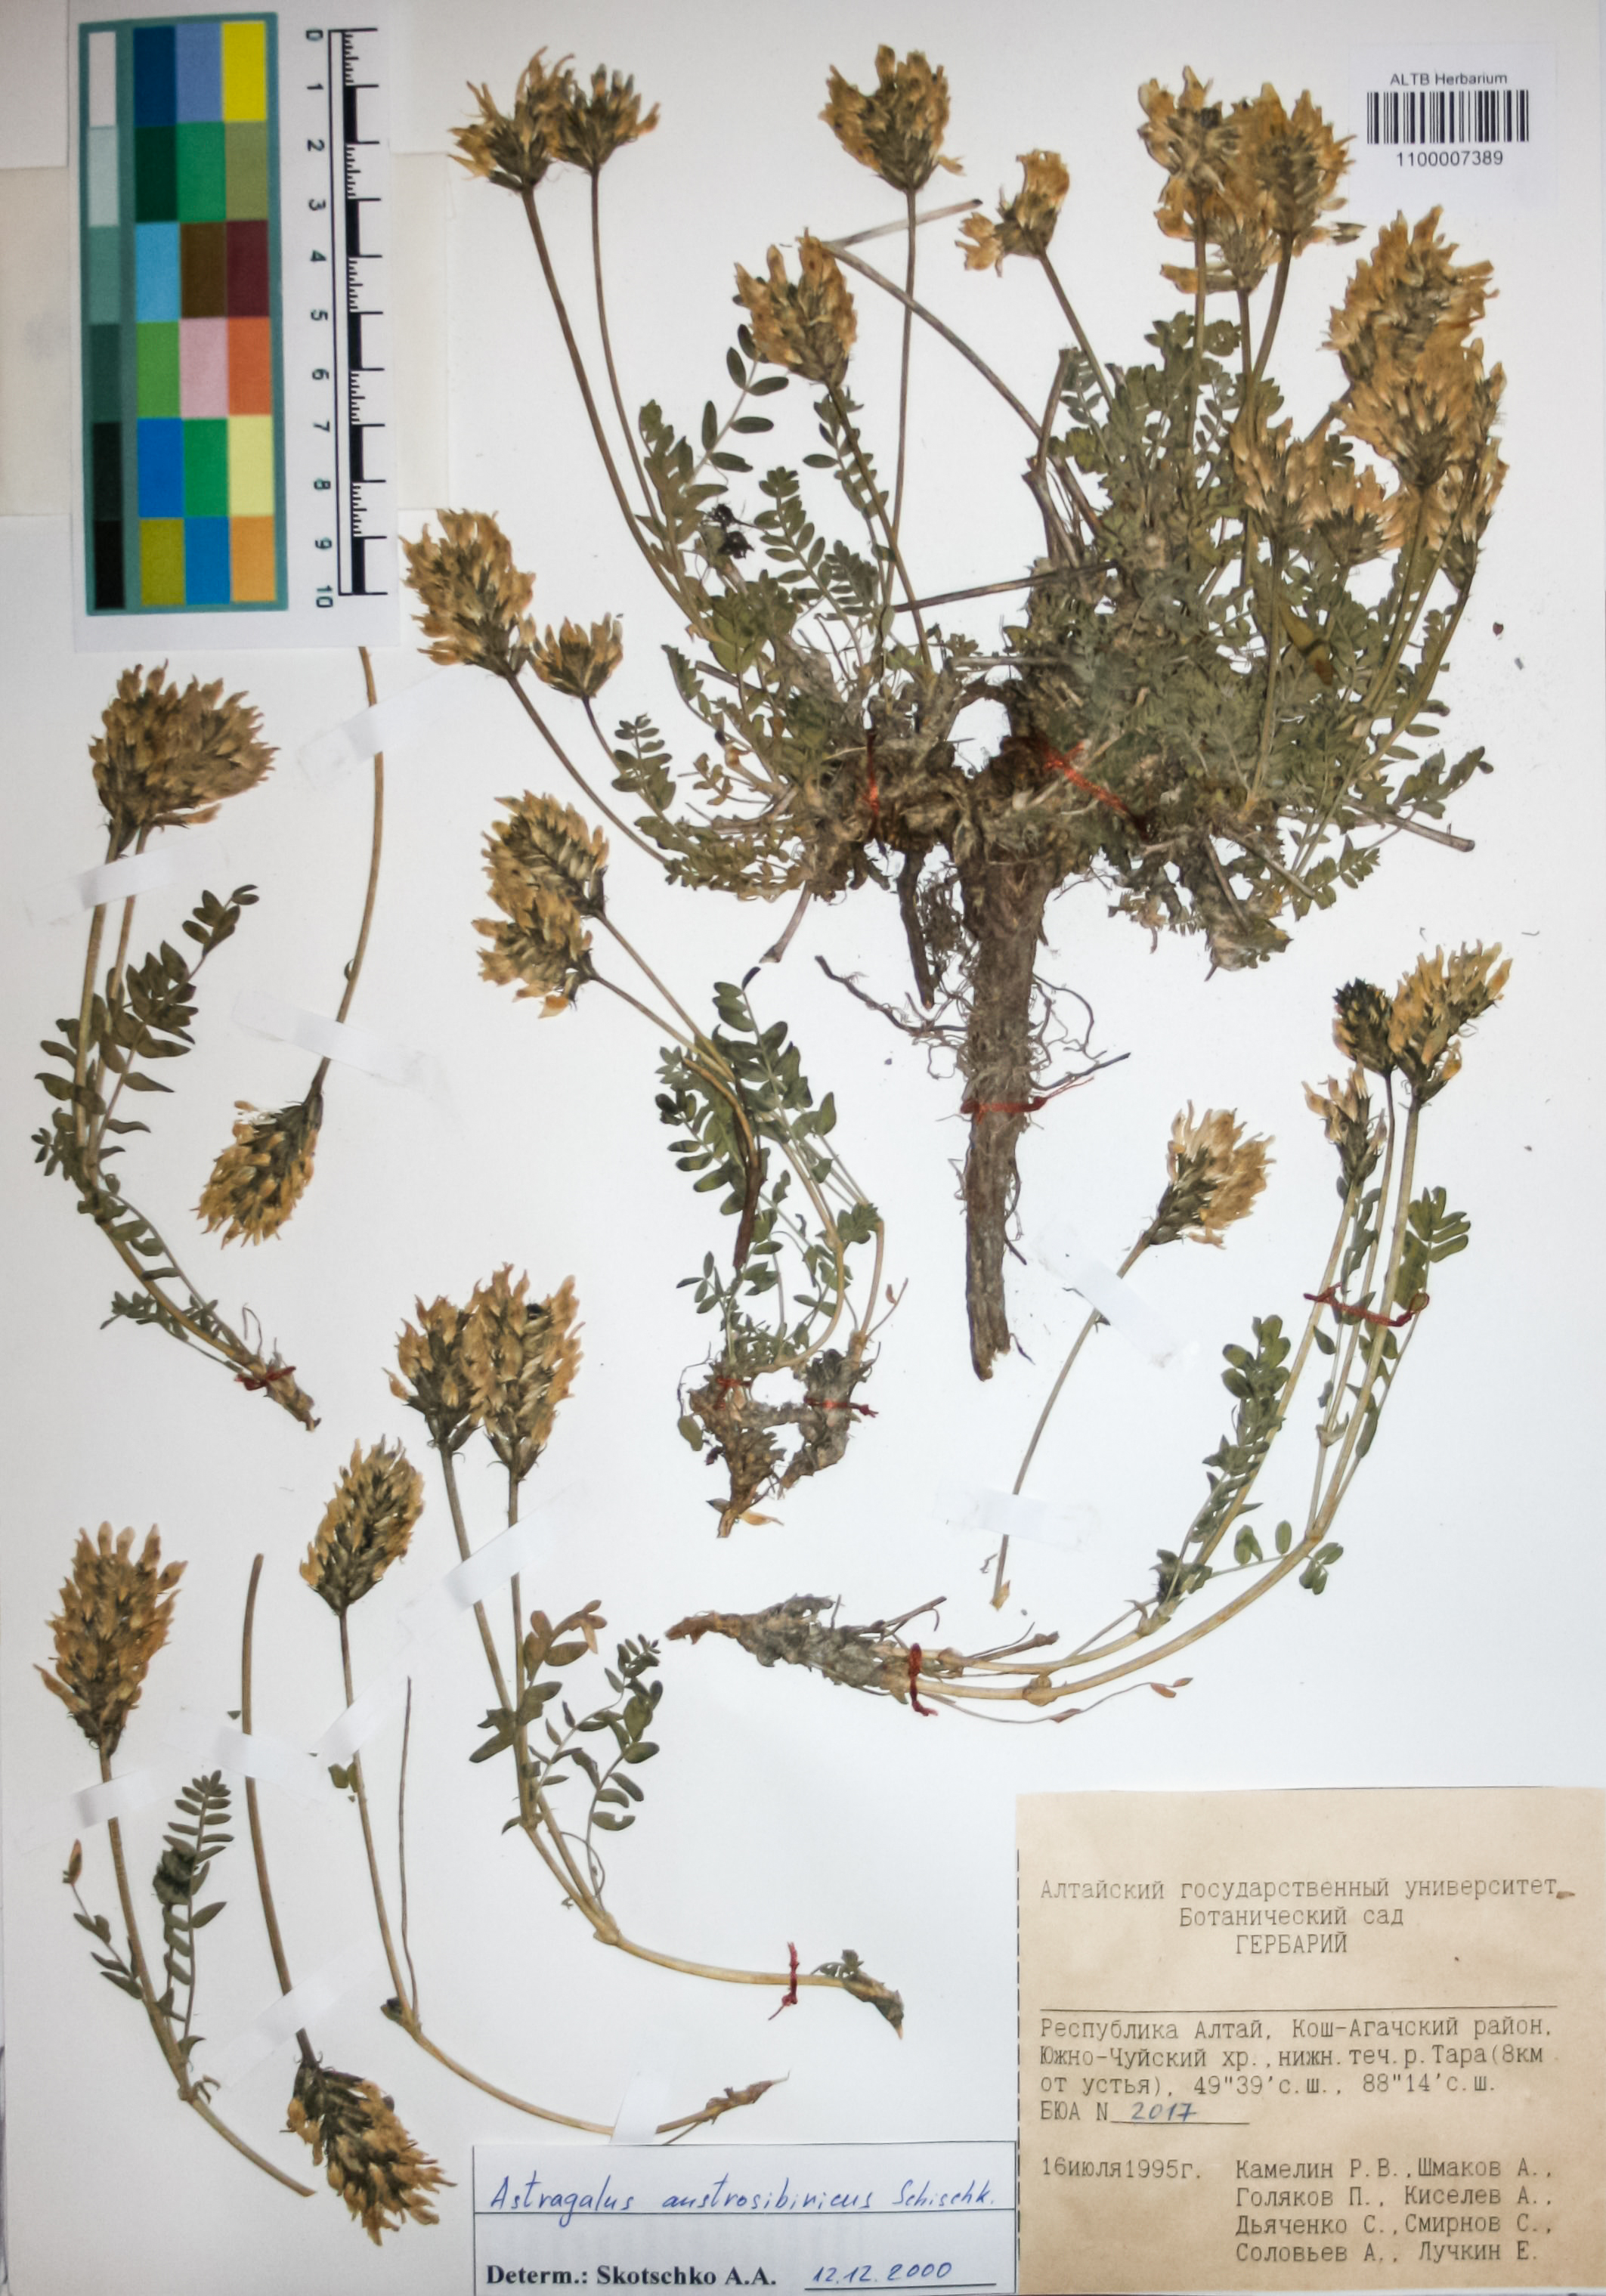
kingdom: Plantae
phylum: Tracheophyta
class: Magnoliopsida
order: Fabales
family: Fabaceae
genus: Astragalus
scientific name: Astragalus laxmannii
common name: Laxmann's milk-vetch
